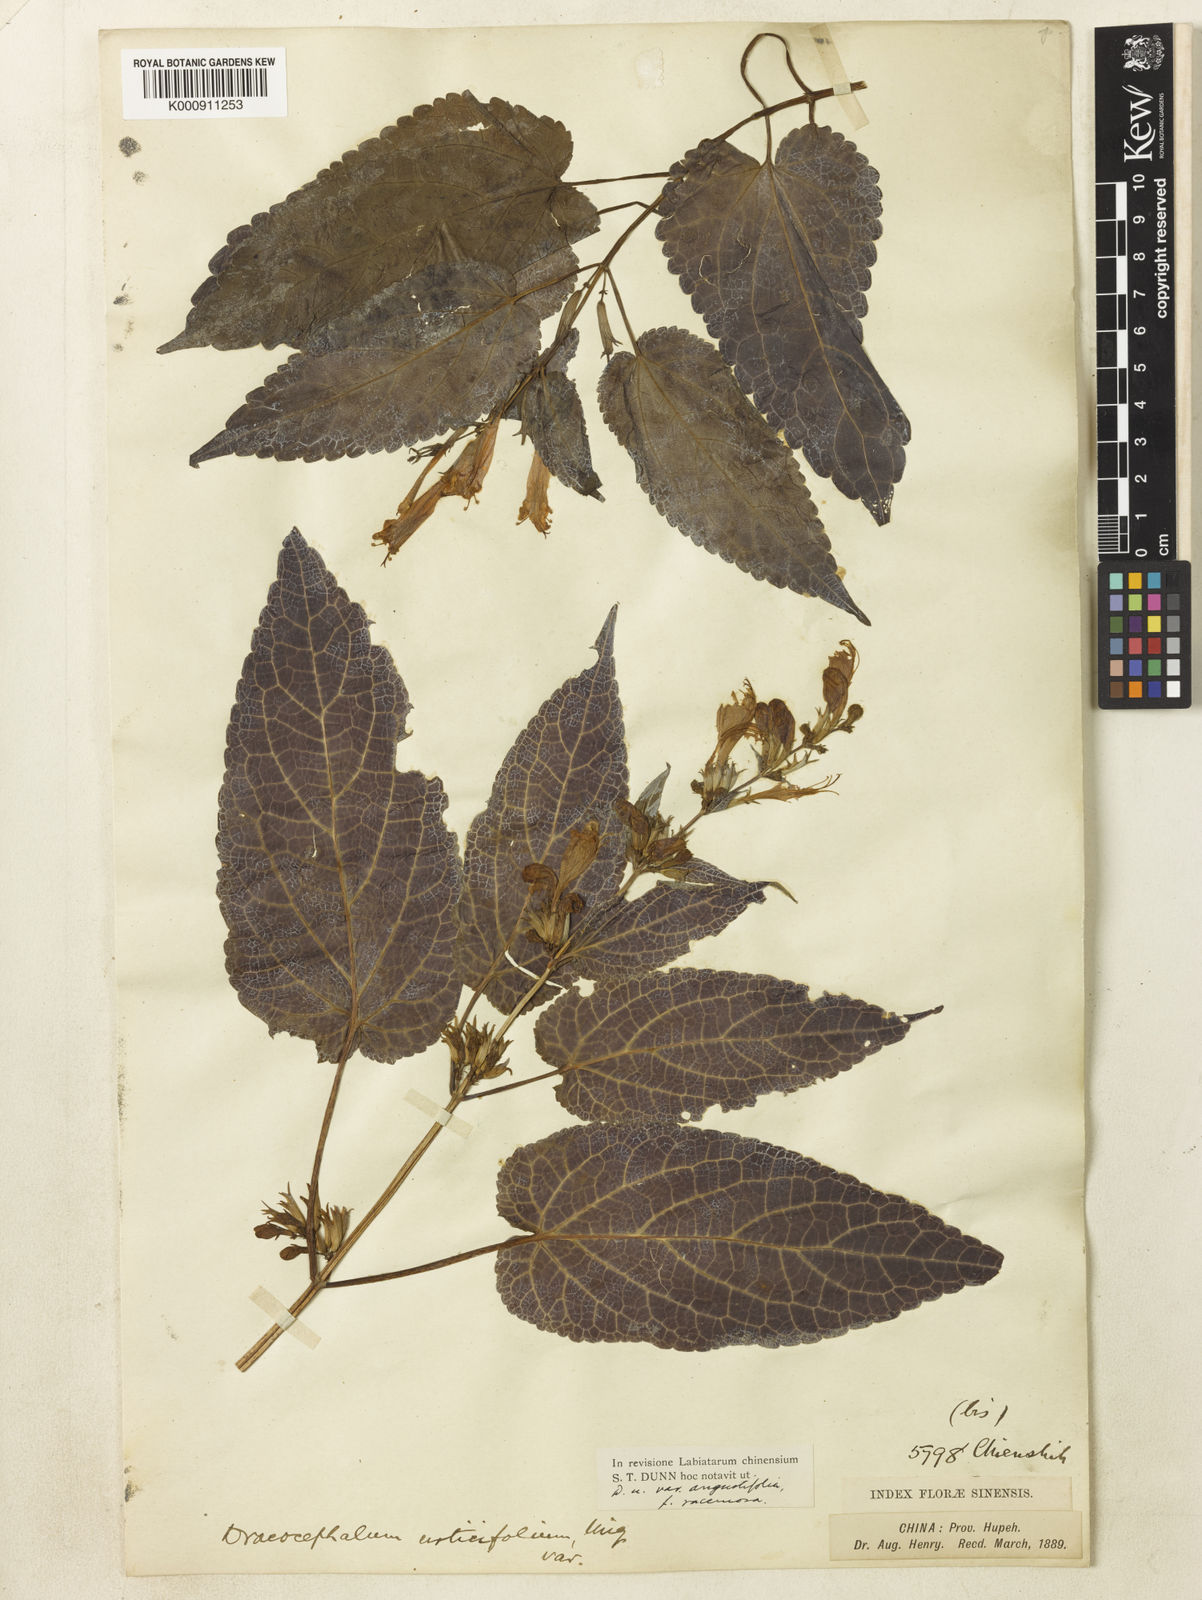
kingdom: Plantae
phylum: Tracheophyta
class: Magnoliopsida
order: Lamiales
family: Lamiaceae
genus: Meehania
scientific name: Meehania fargesii
